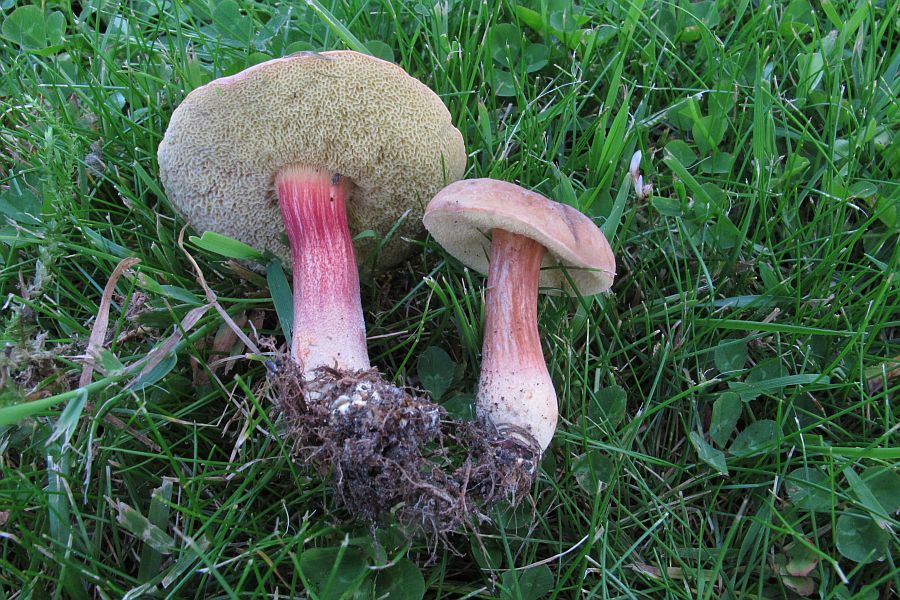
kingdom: Fungi
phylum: Basidiomycota
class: Agaricomycetes
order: Boletales
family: Boletaceae
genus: Hortiboletus
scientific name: Hortiboletus bubalinus
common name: aurora-rørhat
